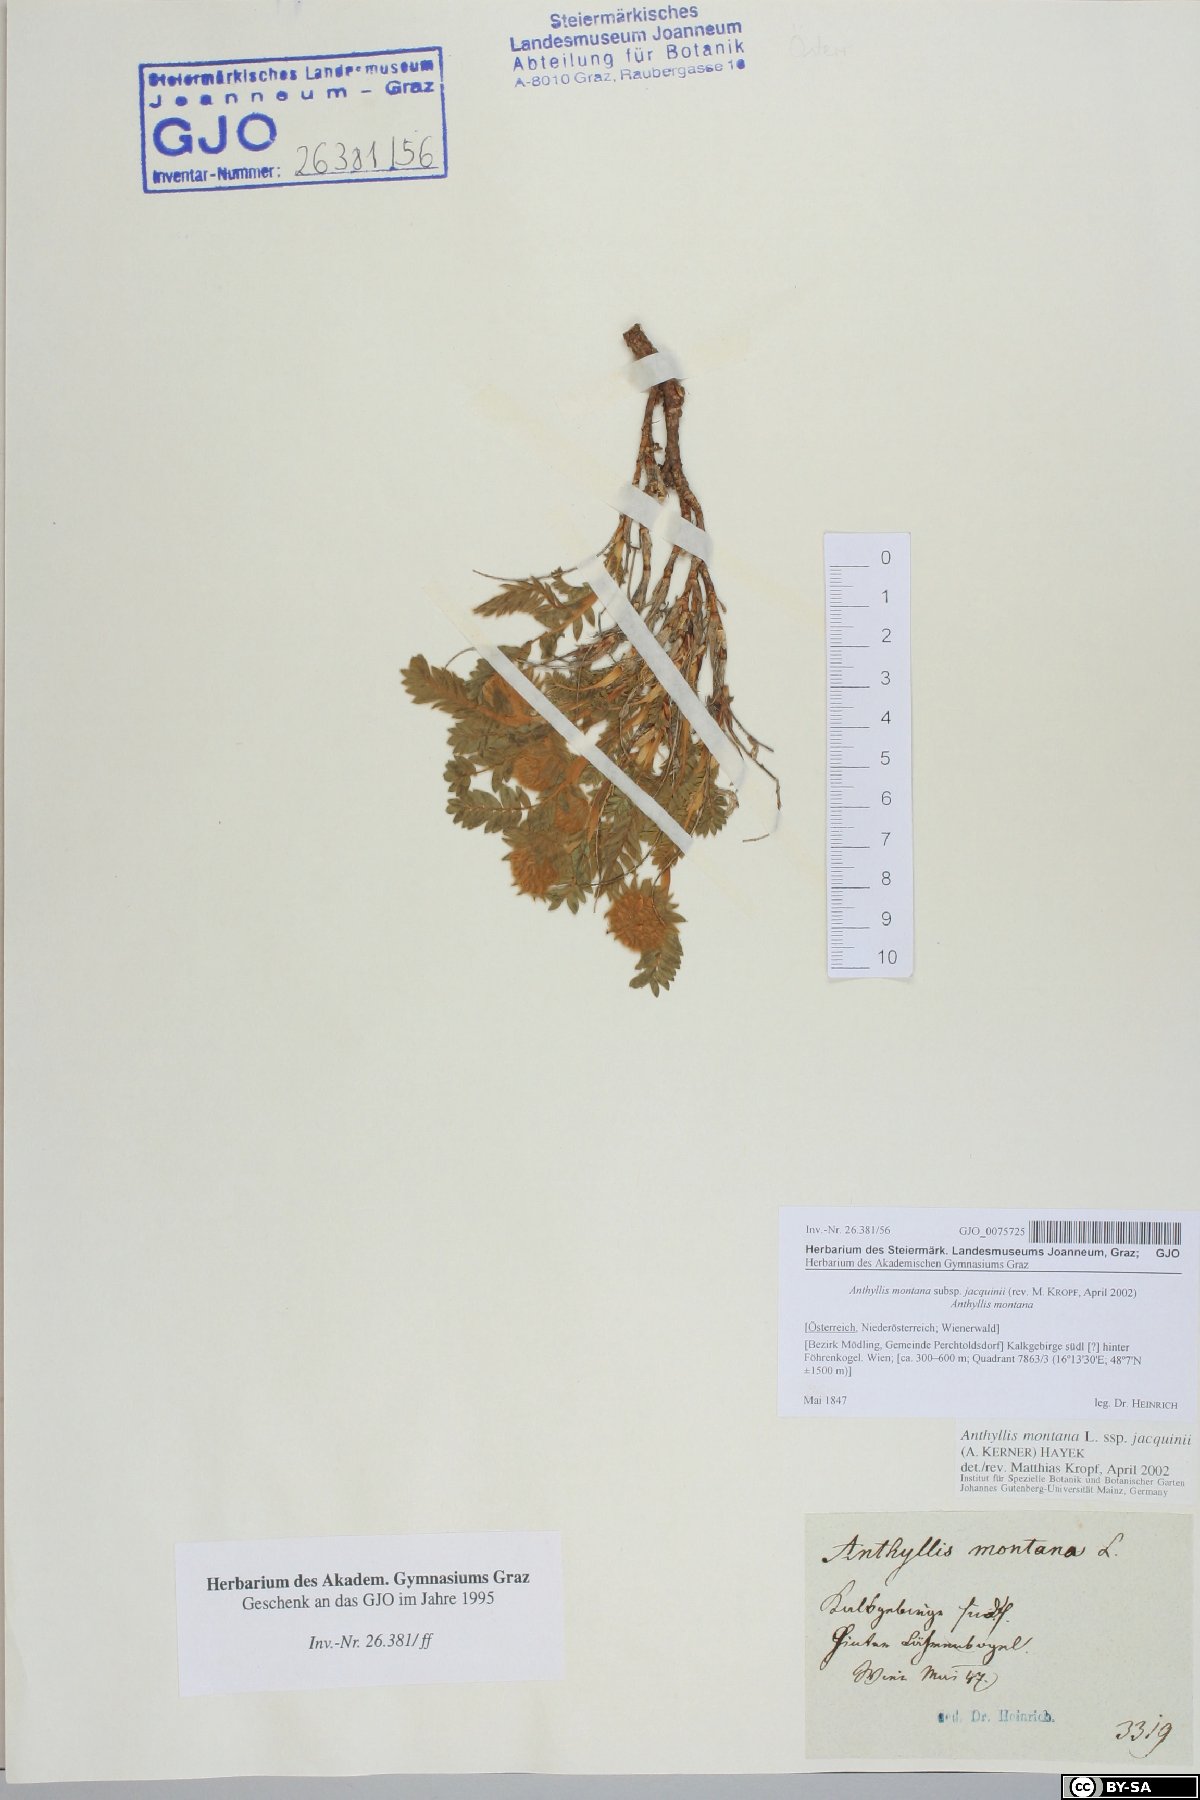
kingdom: Plantae
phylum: Tracheophyta
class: Magnoliopsida
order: Fabales
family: Fabaceae
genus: Anthyllis
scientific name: Anthyllis montana
